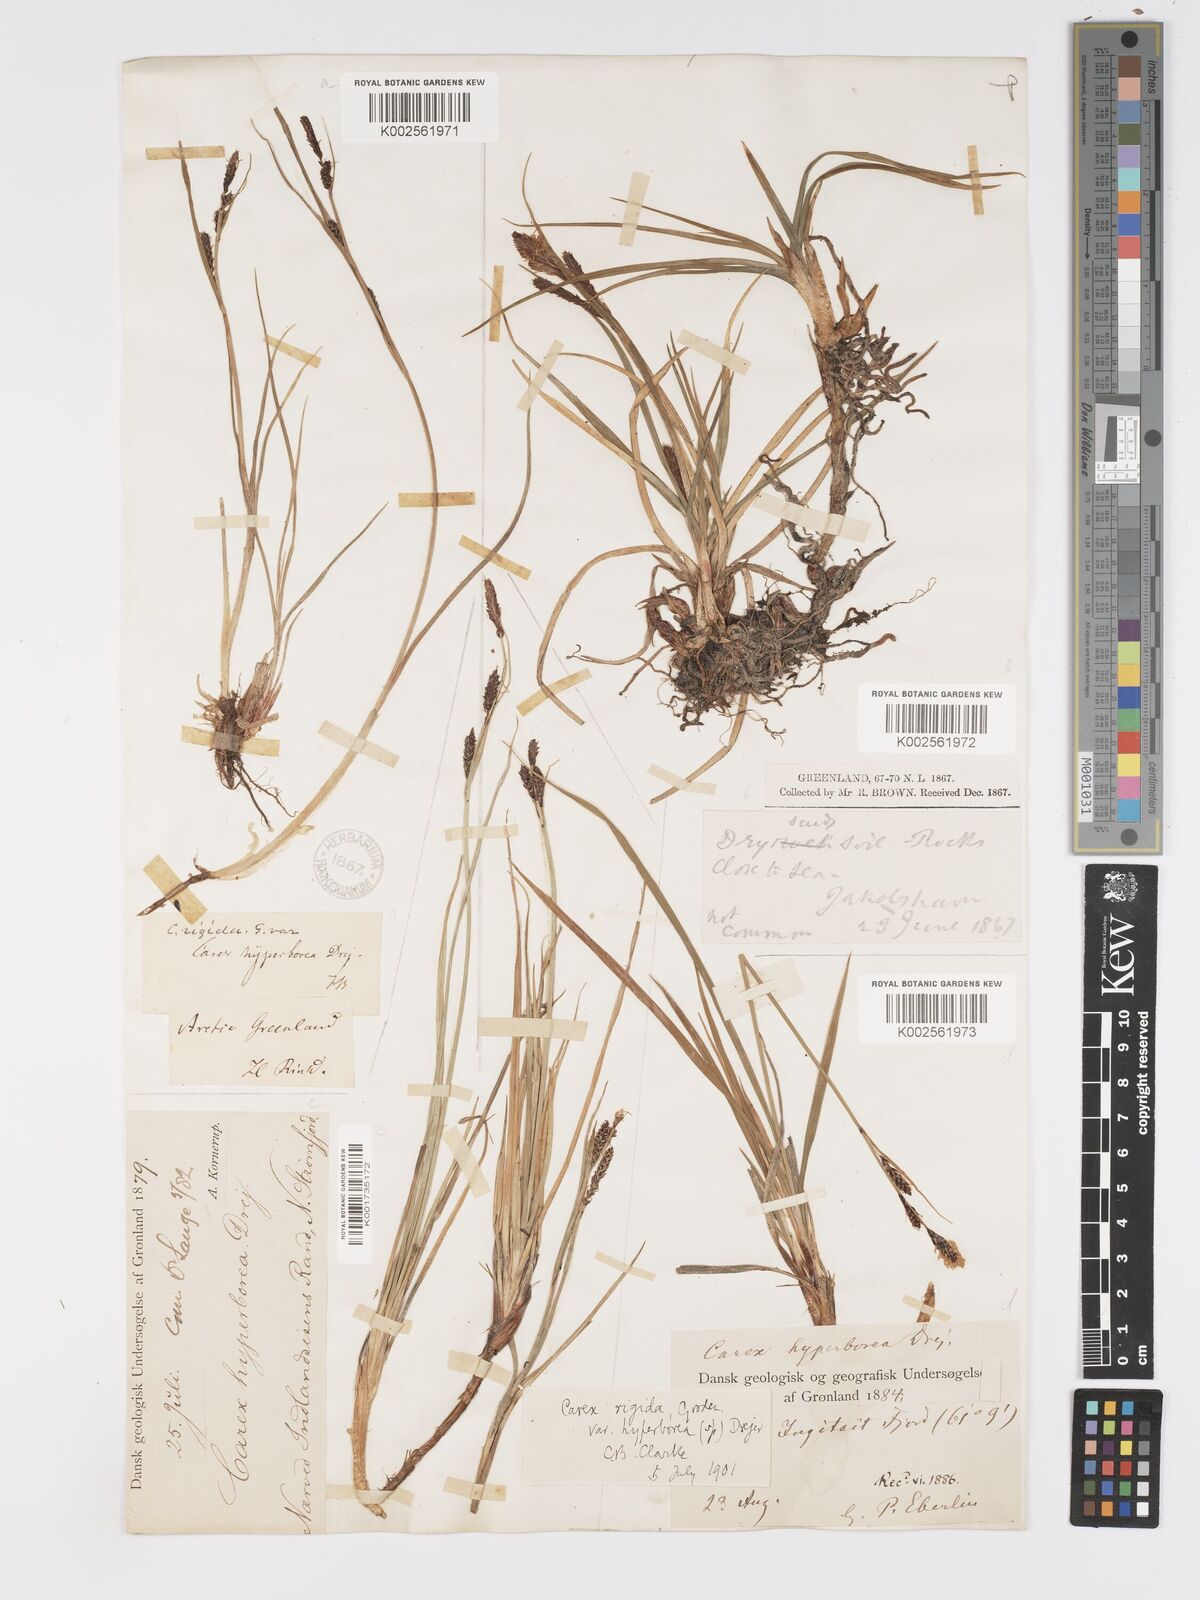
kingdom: Plantae
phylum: Tracheophyta
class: Liliopsida
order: Poales
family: Cyperaceae
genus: Carex
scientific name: Carex bigelowii
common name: Stiff sedge
